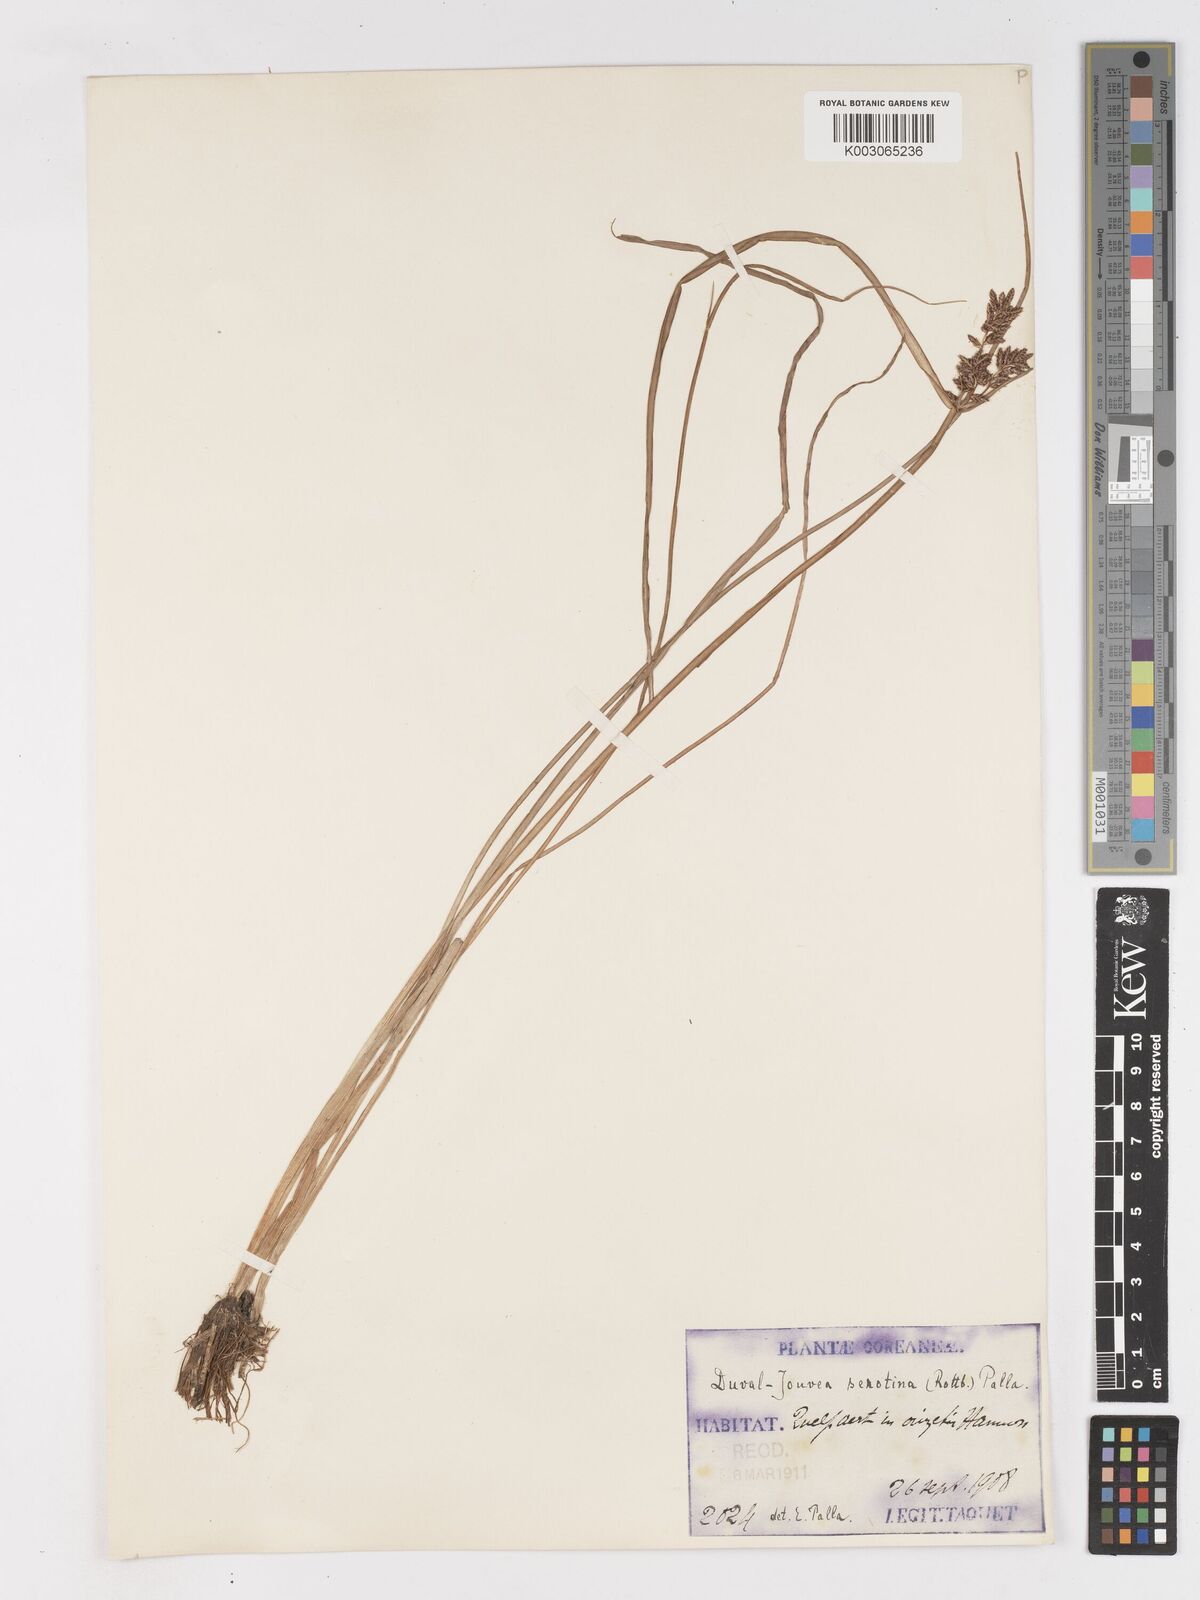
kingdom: Plantae
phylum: Tracheophyta
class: Liliopsida
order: Poales
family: Cyperaceae
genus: Cyperus
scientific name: Cyperus serotinus
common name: Tidalmarsh flatsedge
